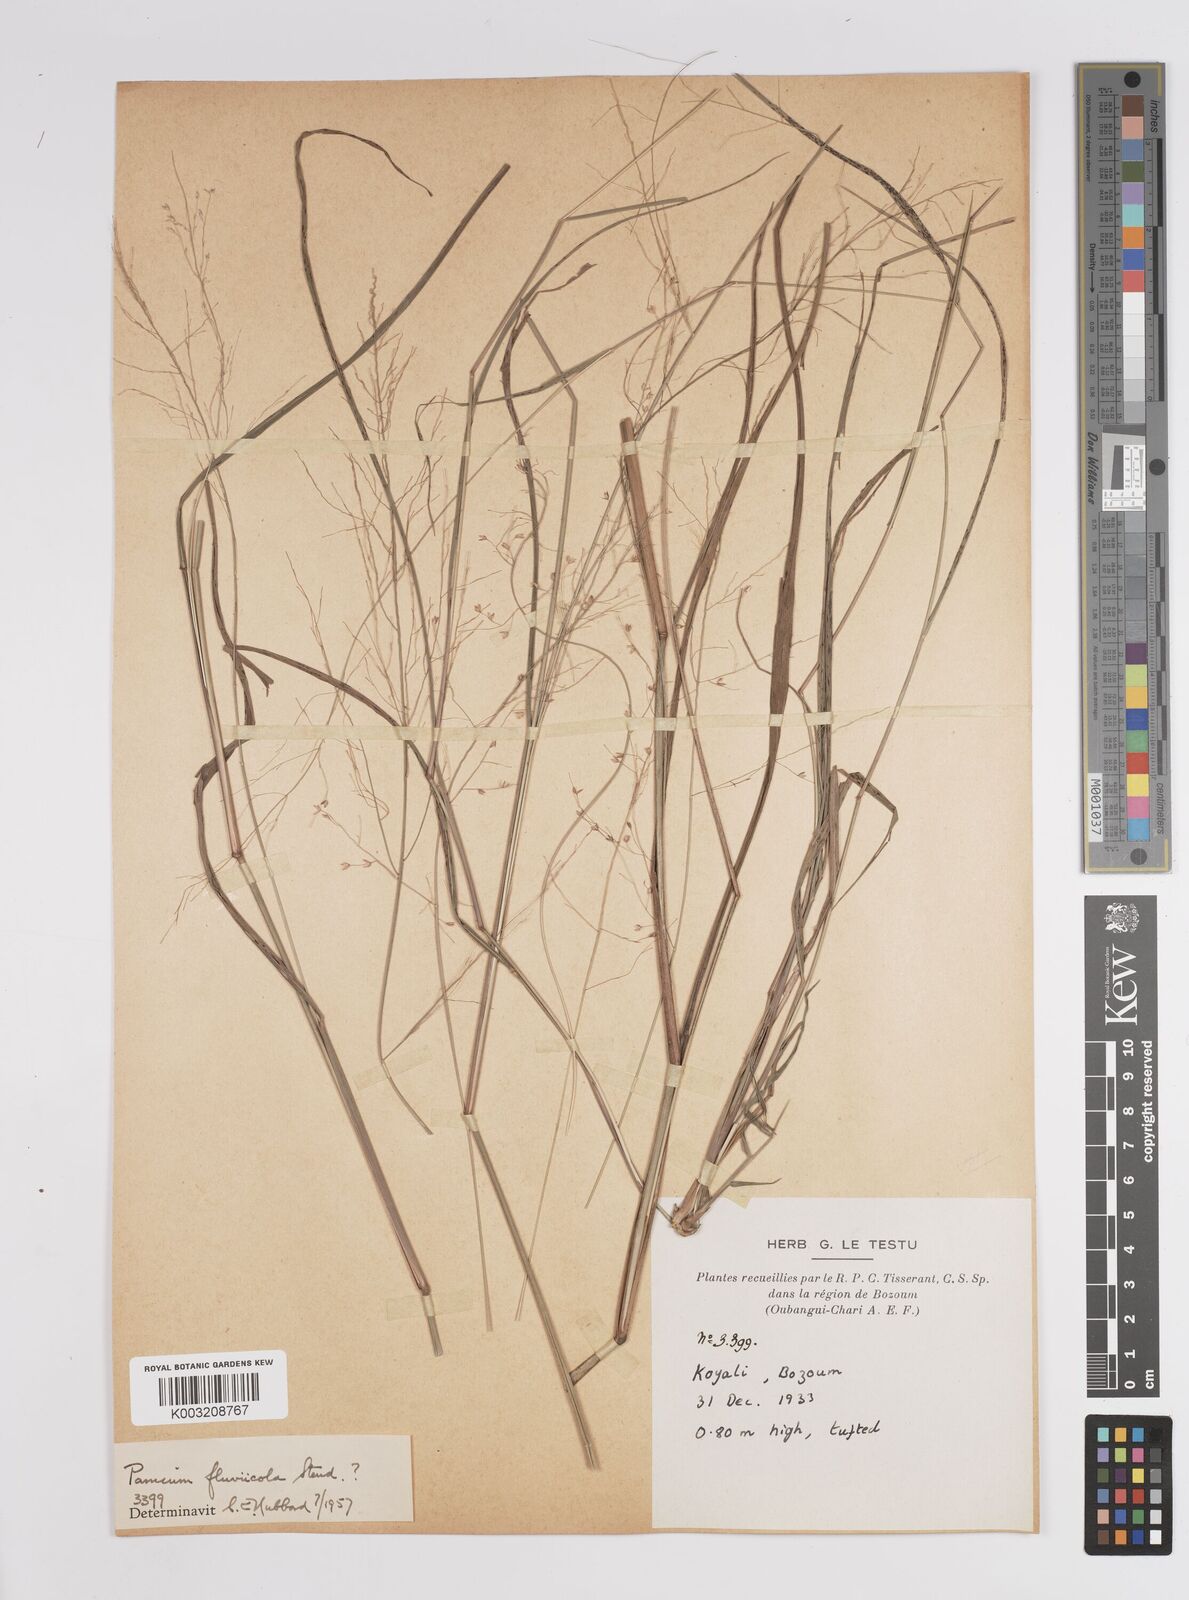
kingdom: Plantae
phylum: Tracheophyta
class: Liliopsida
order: Poales
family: Poaceae
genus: Panicum
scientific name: Panicum fluviicola
